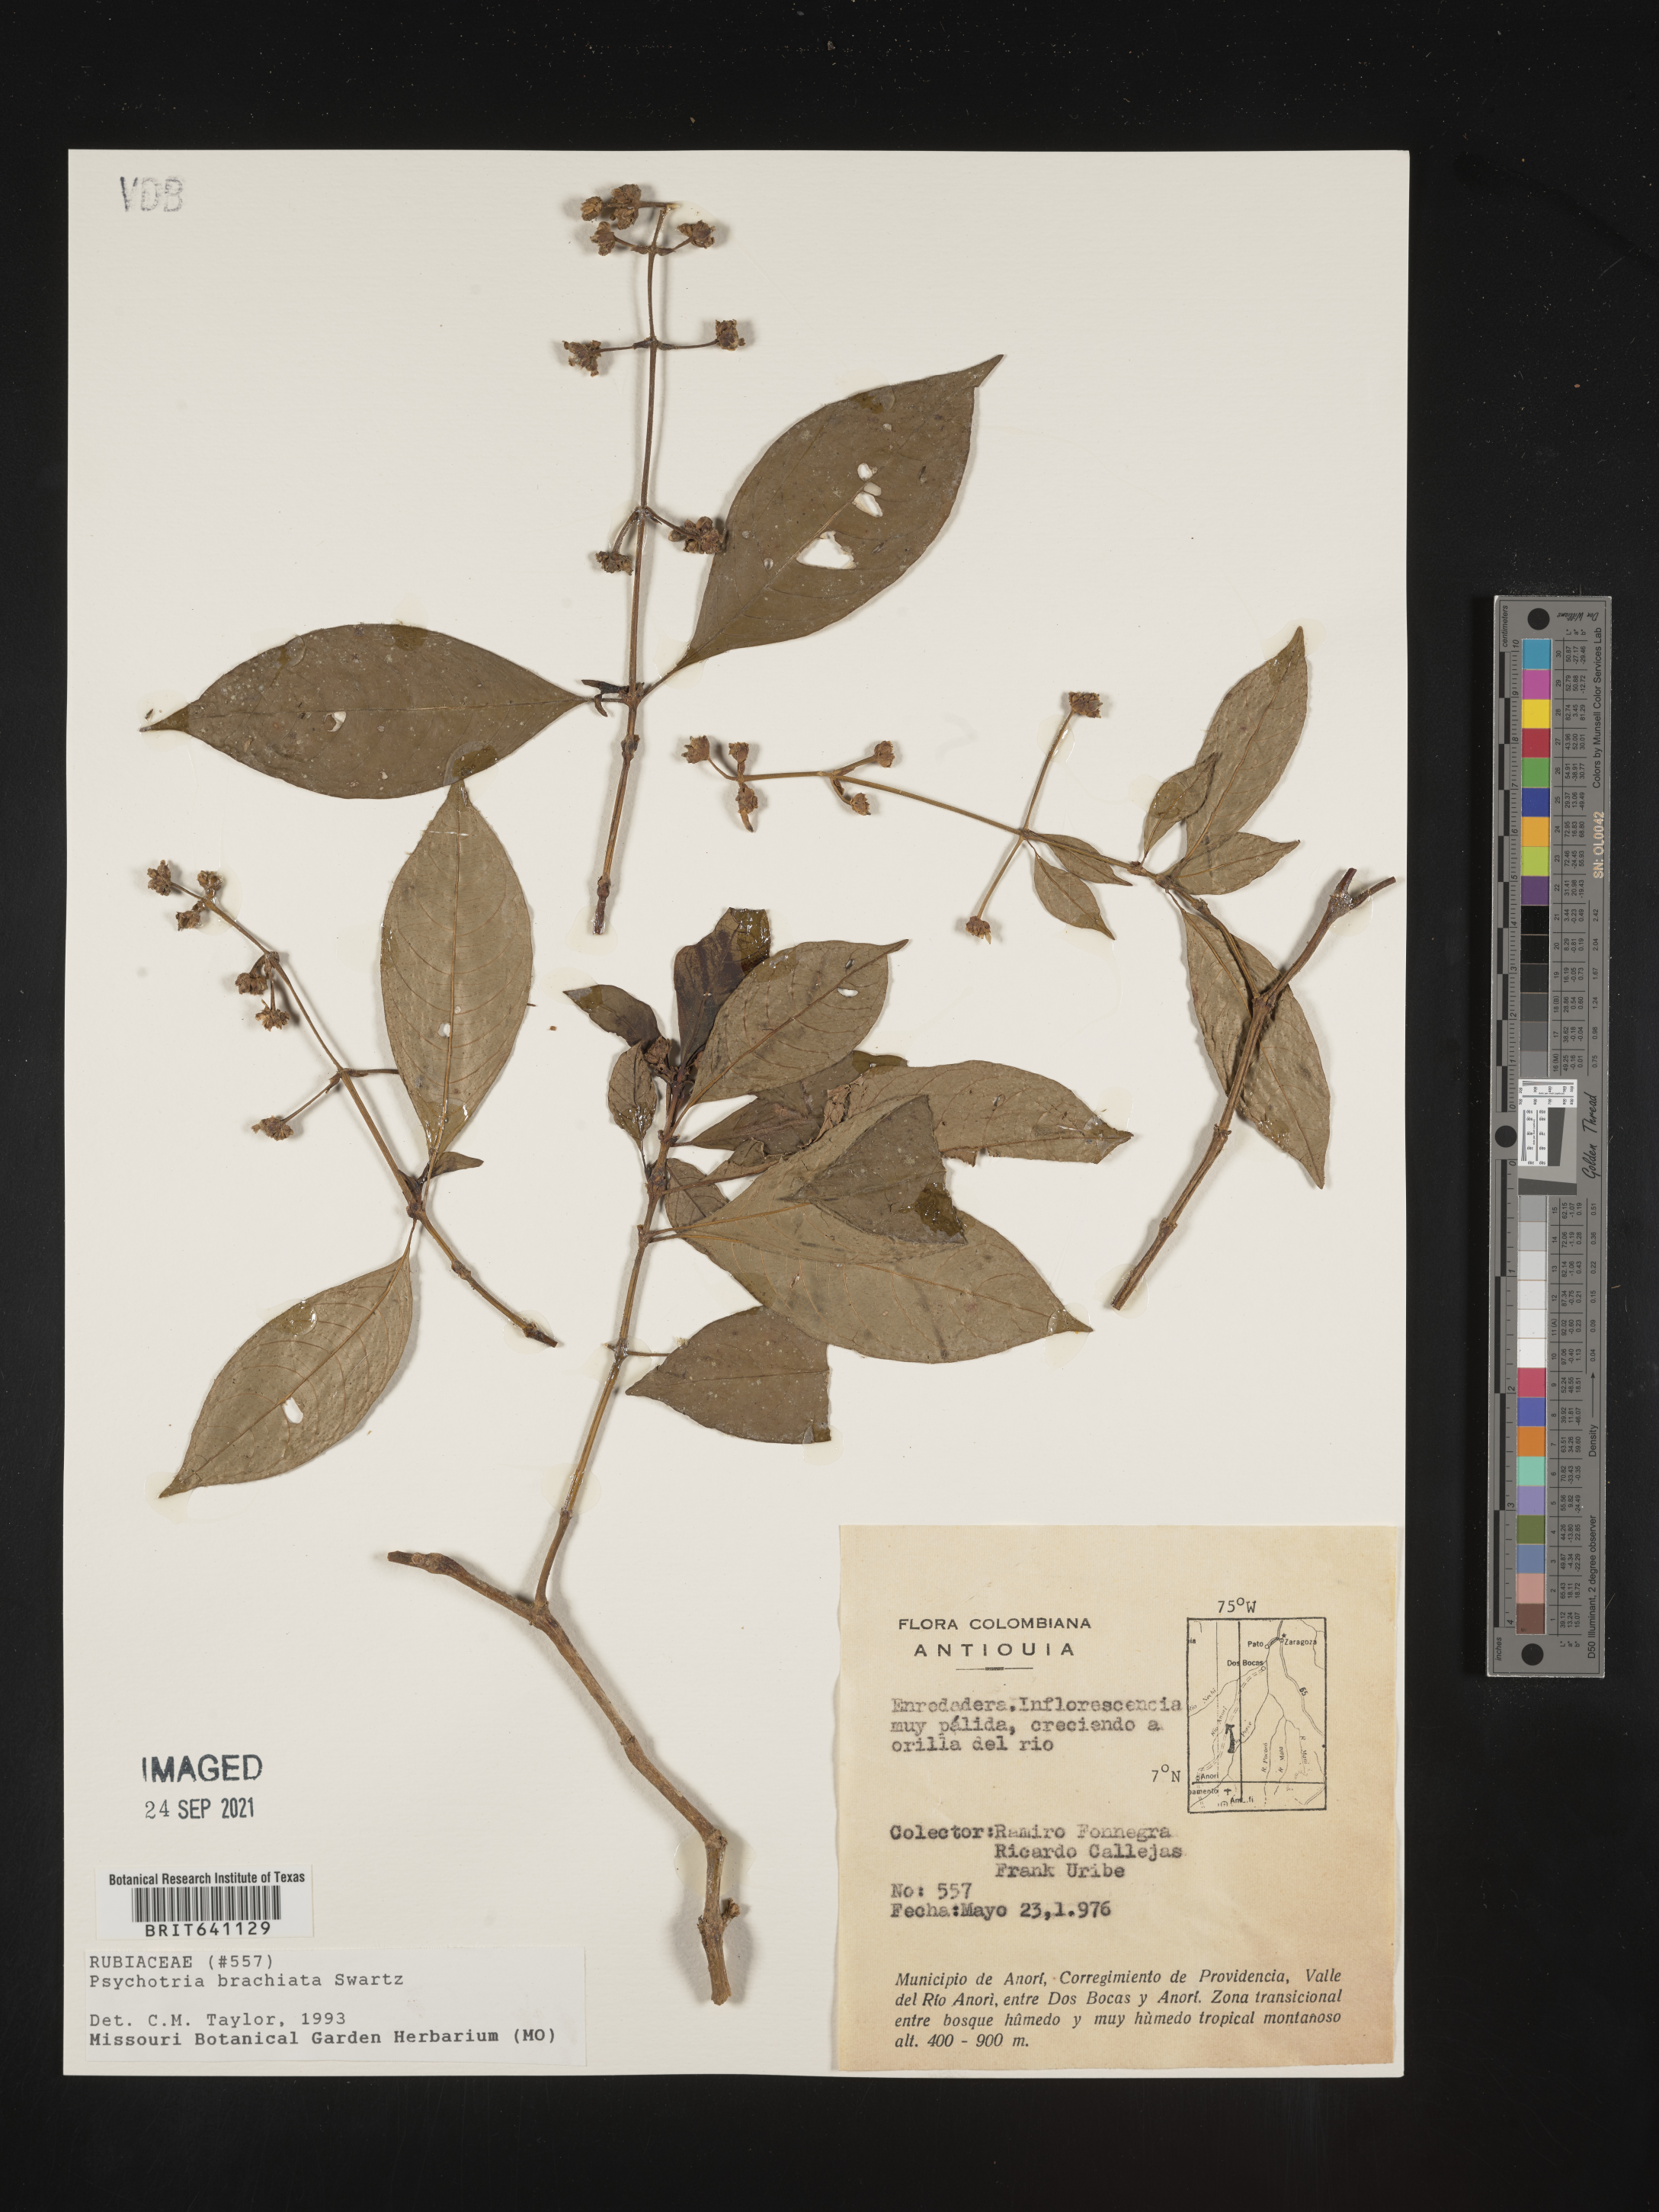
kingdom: Plantae
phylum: Tracheophyta
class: Magnoliopsida
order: Gentianales
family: Rubiaceae
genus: Psychotria
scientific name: Psychotria
